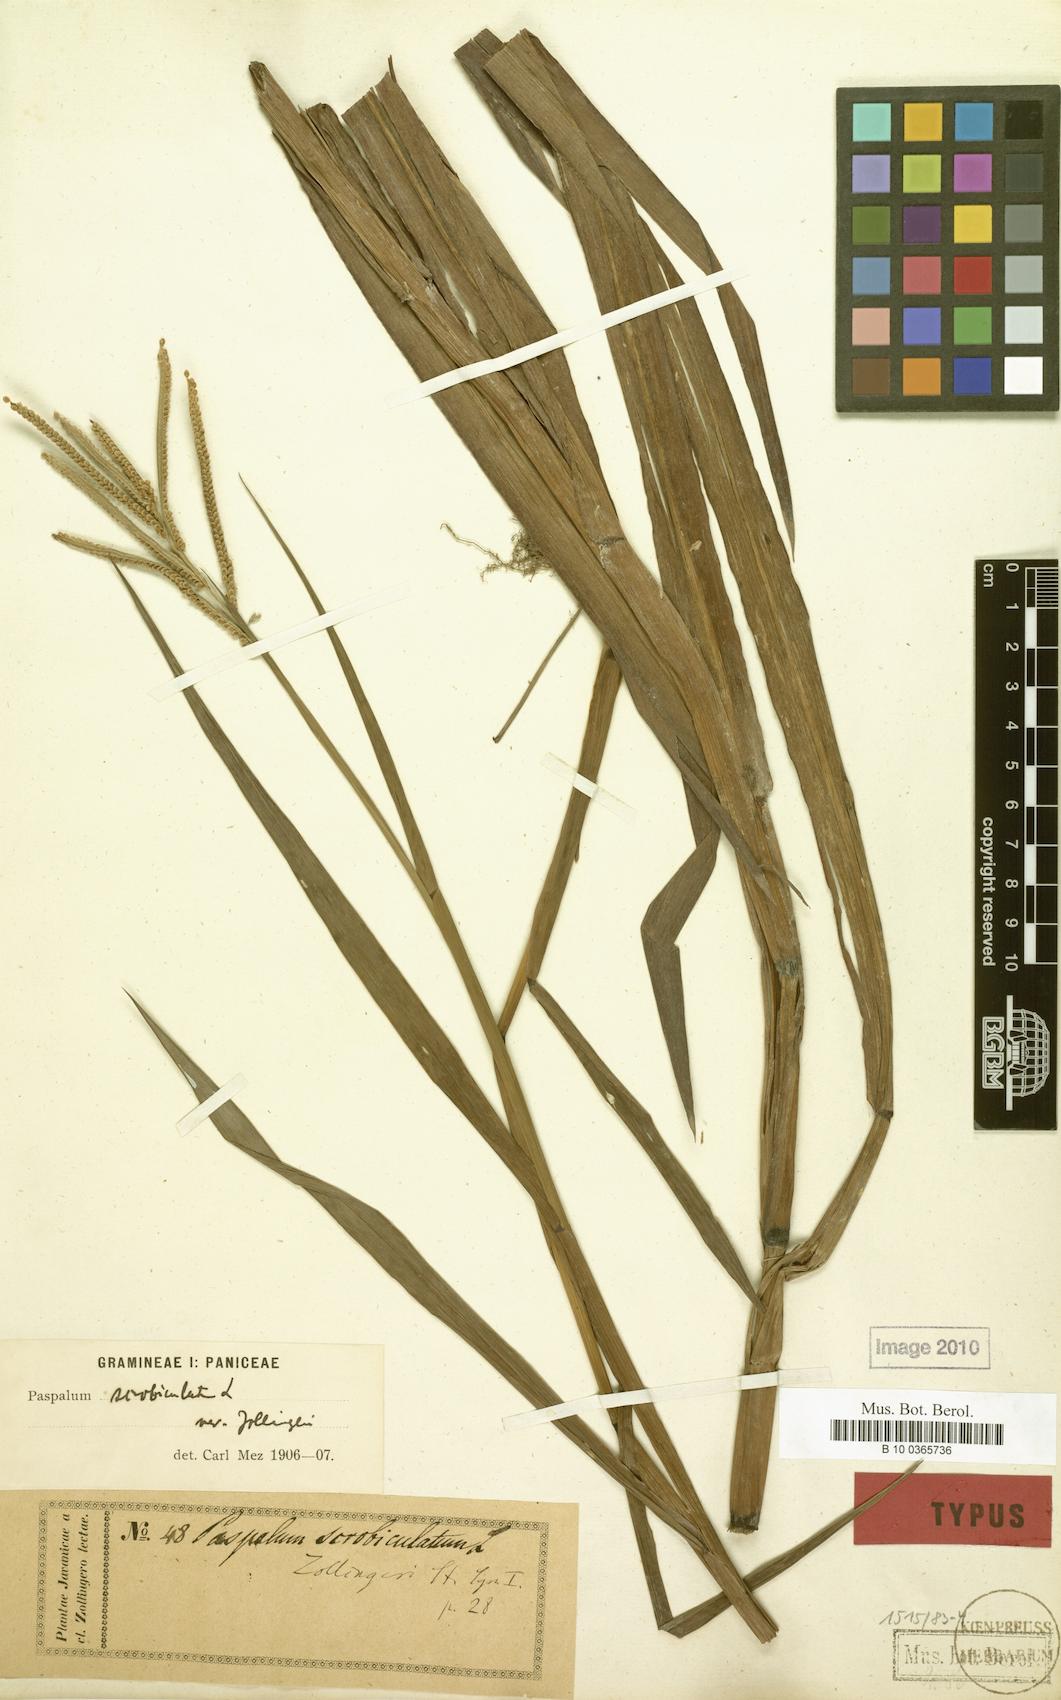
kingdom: Plantae
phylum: Tracheophyta
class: Liliopsida
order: Poales
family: Poaceae
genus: Paspalum
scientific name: Paspalum scrobiculatum
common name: Kodo millet
